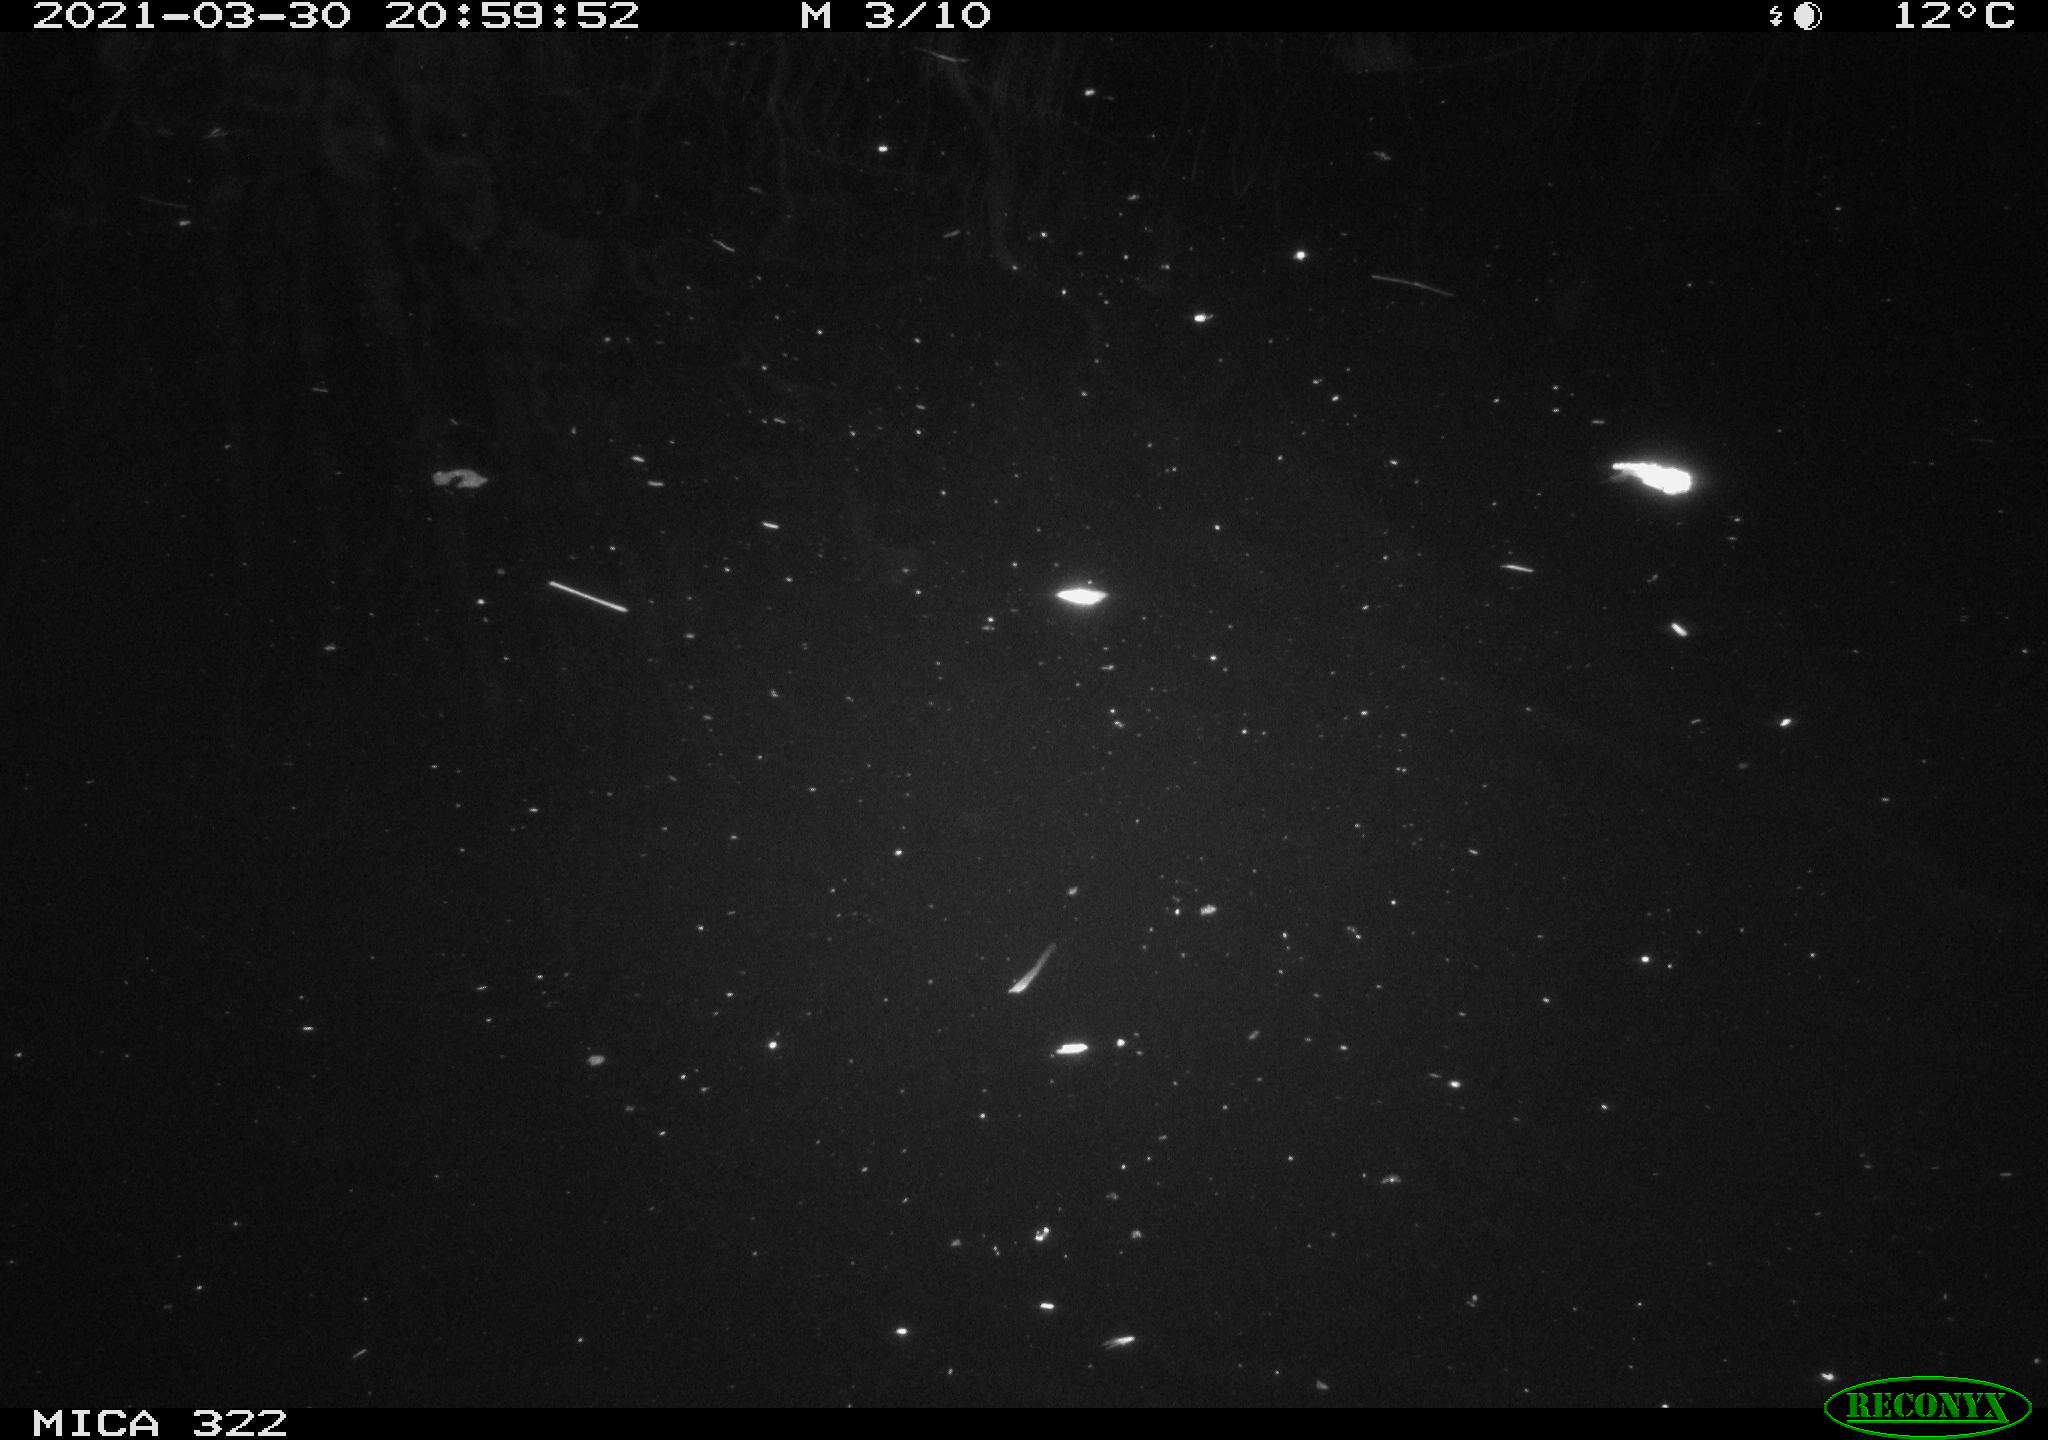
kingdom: Animalia
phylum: Chordata
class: Aves
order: Anseriformes
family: Anatidae
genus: Anas
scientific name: Anas platyrhynchos
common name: Mallard
